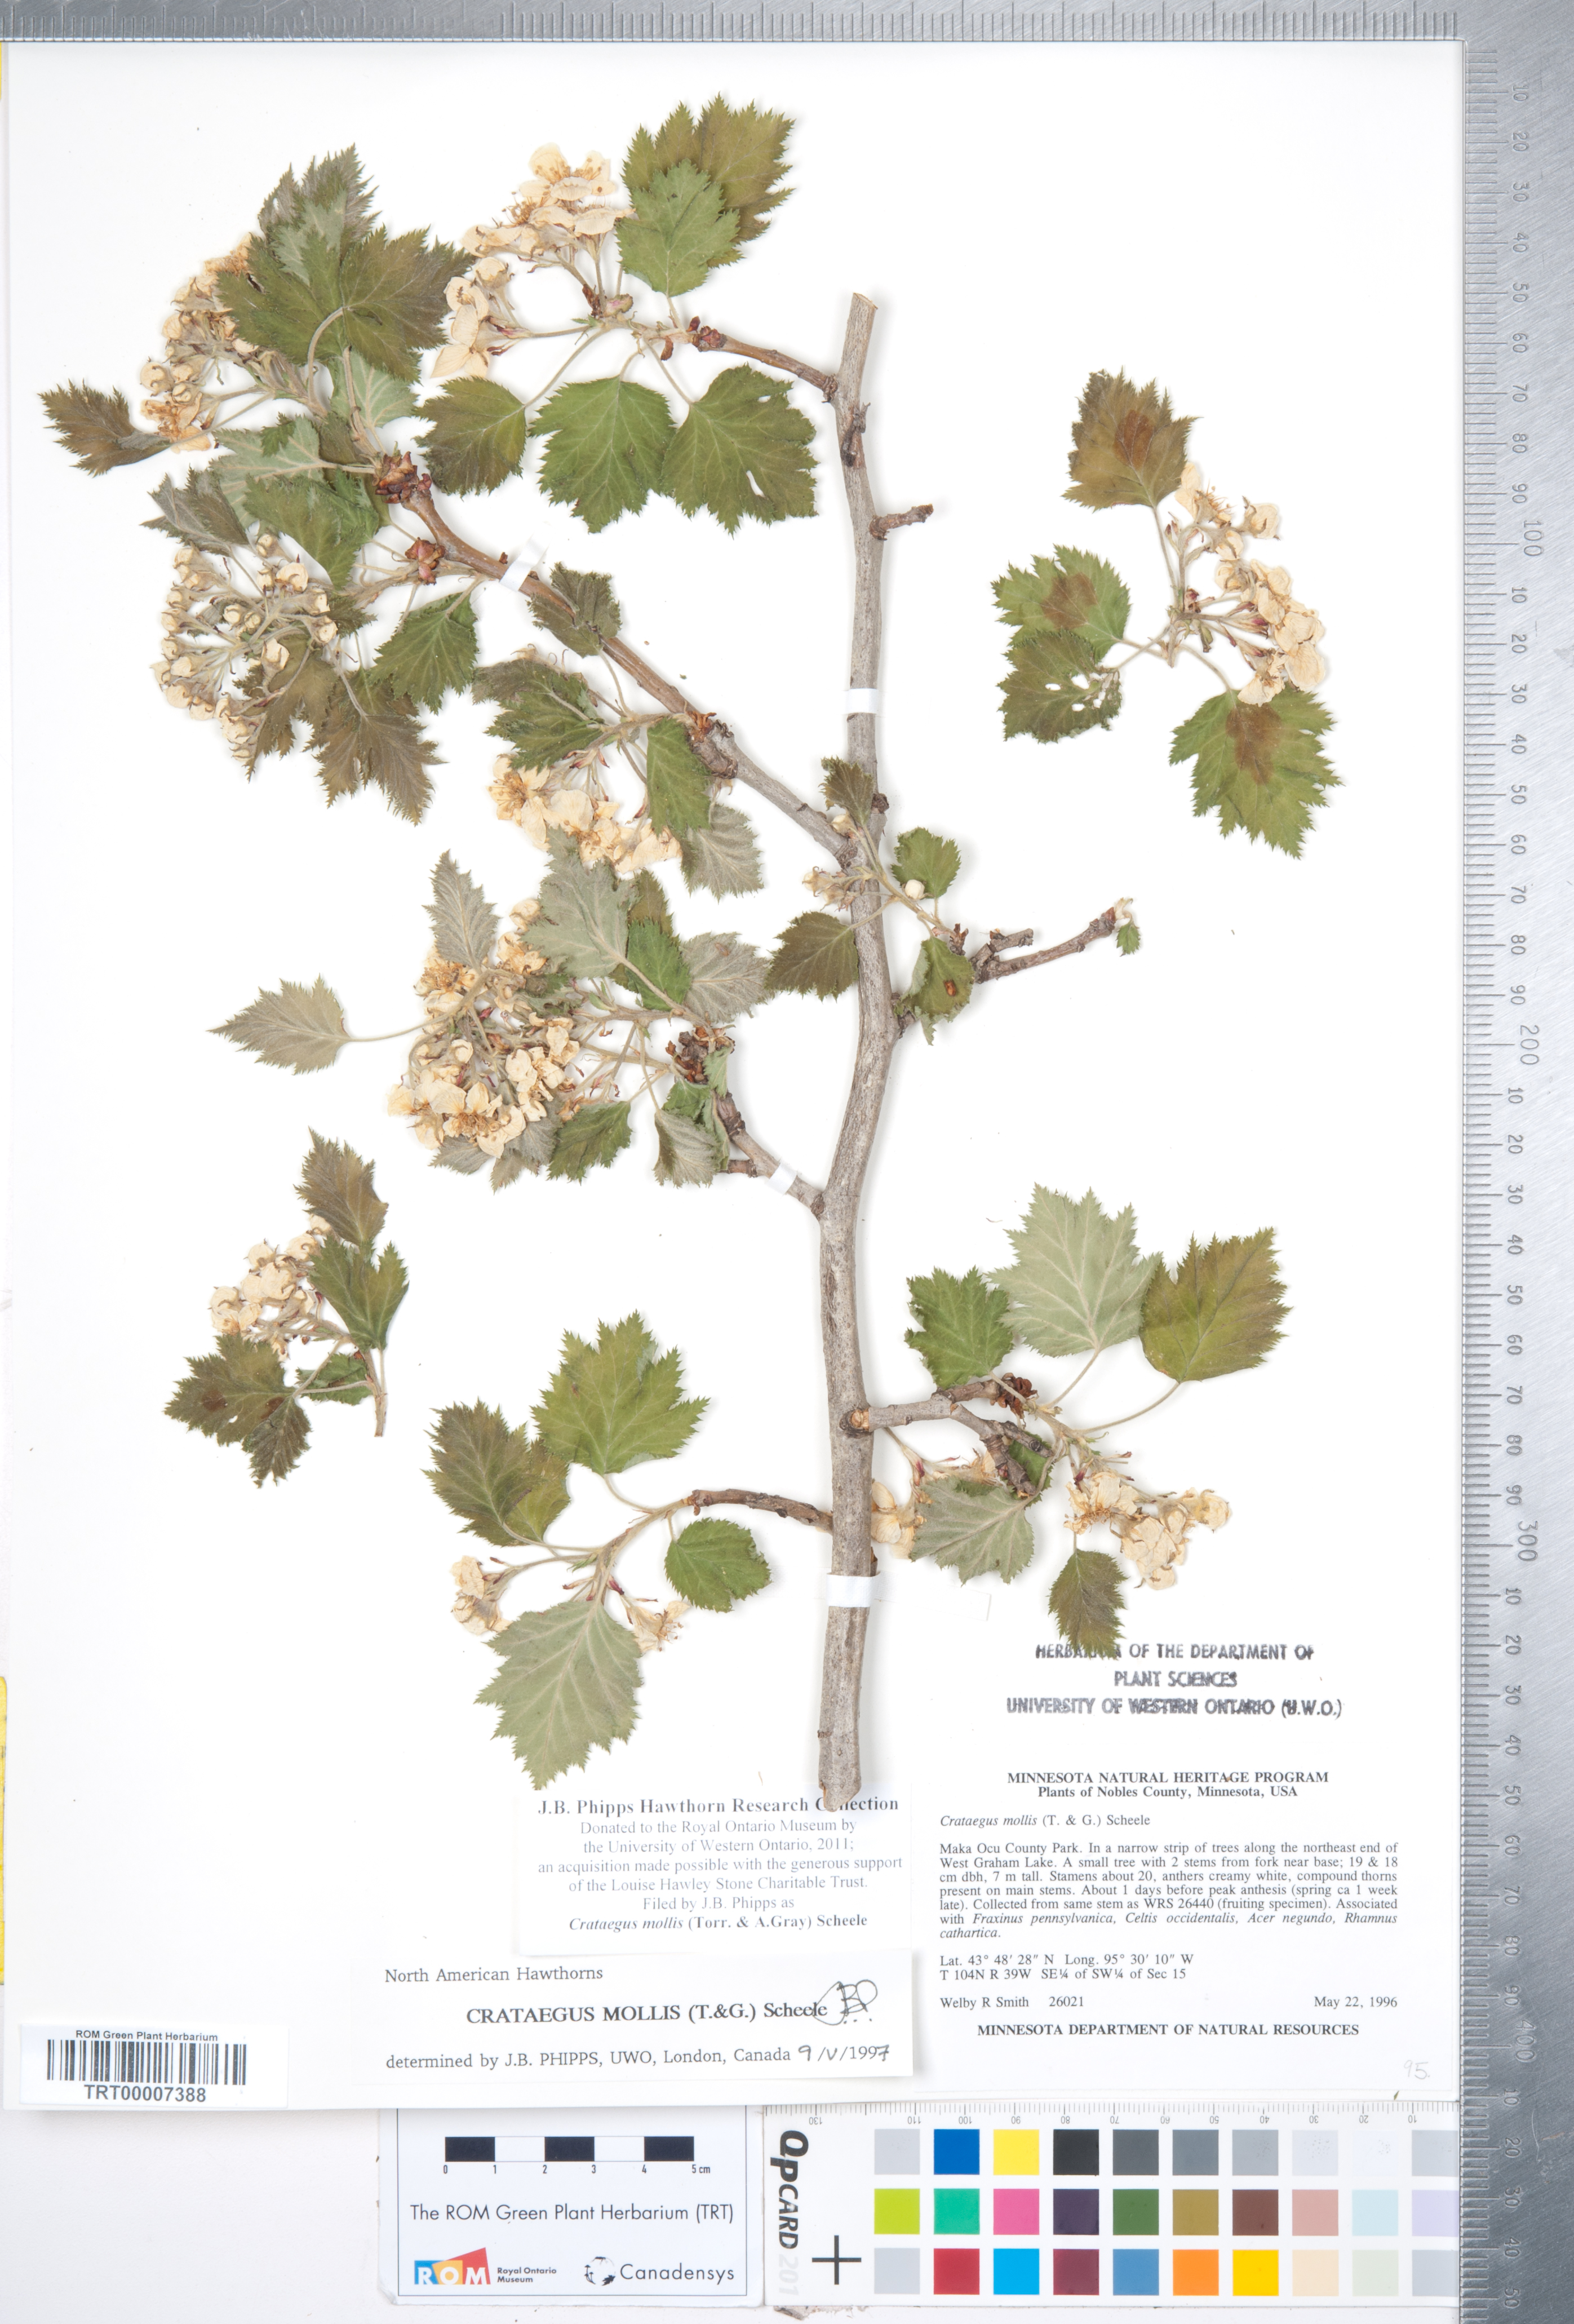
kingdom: Plantae
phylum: Tracheophyta
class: Magnoliopsida
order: Rosales
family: Rosaceae
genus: Crataegus
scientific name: Crataegus mollis
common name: Downy hawthorn
